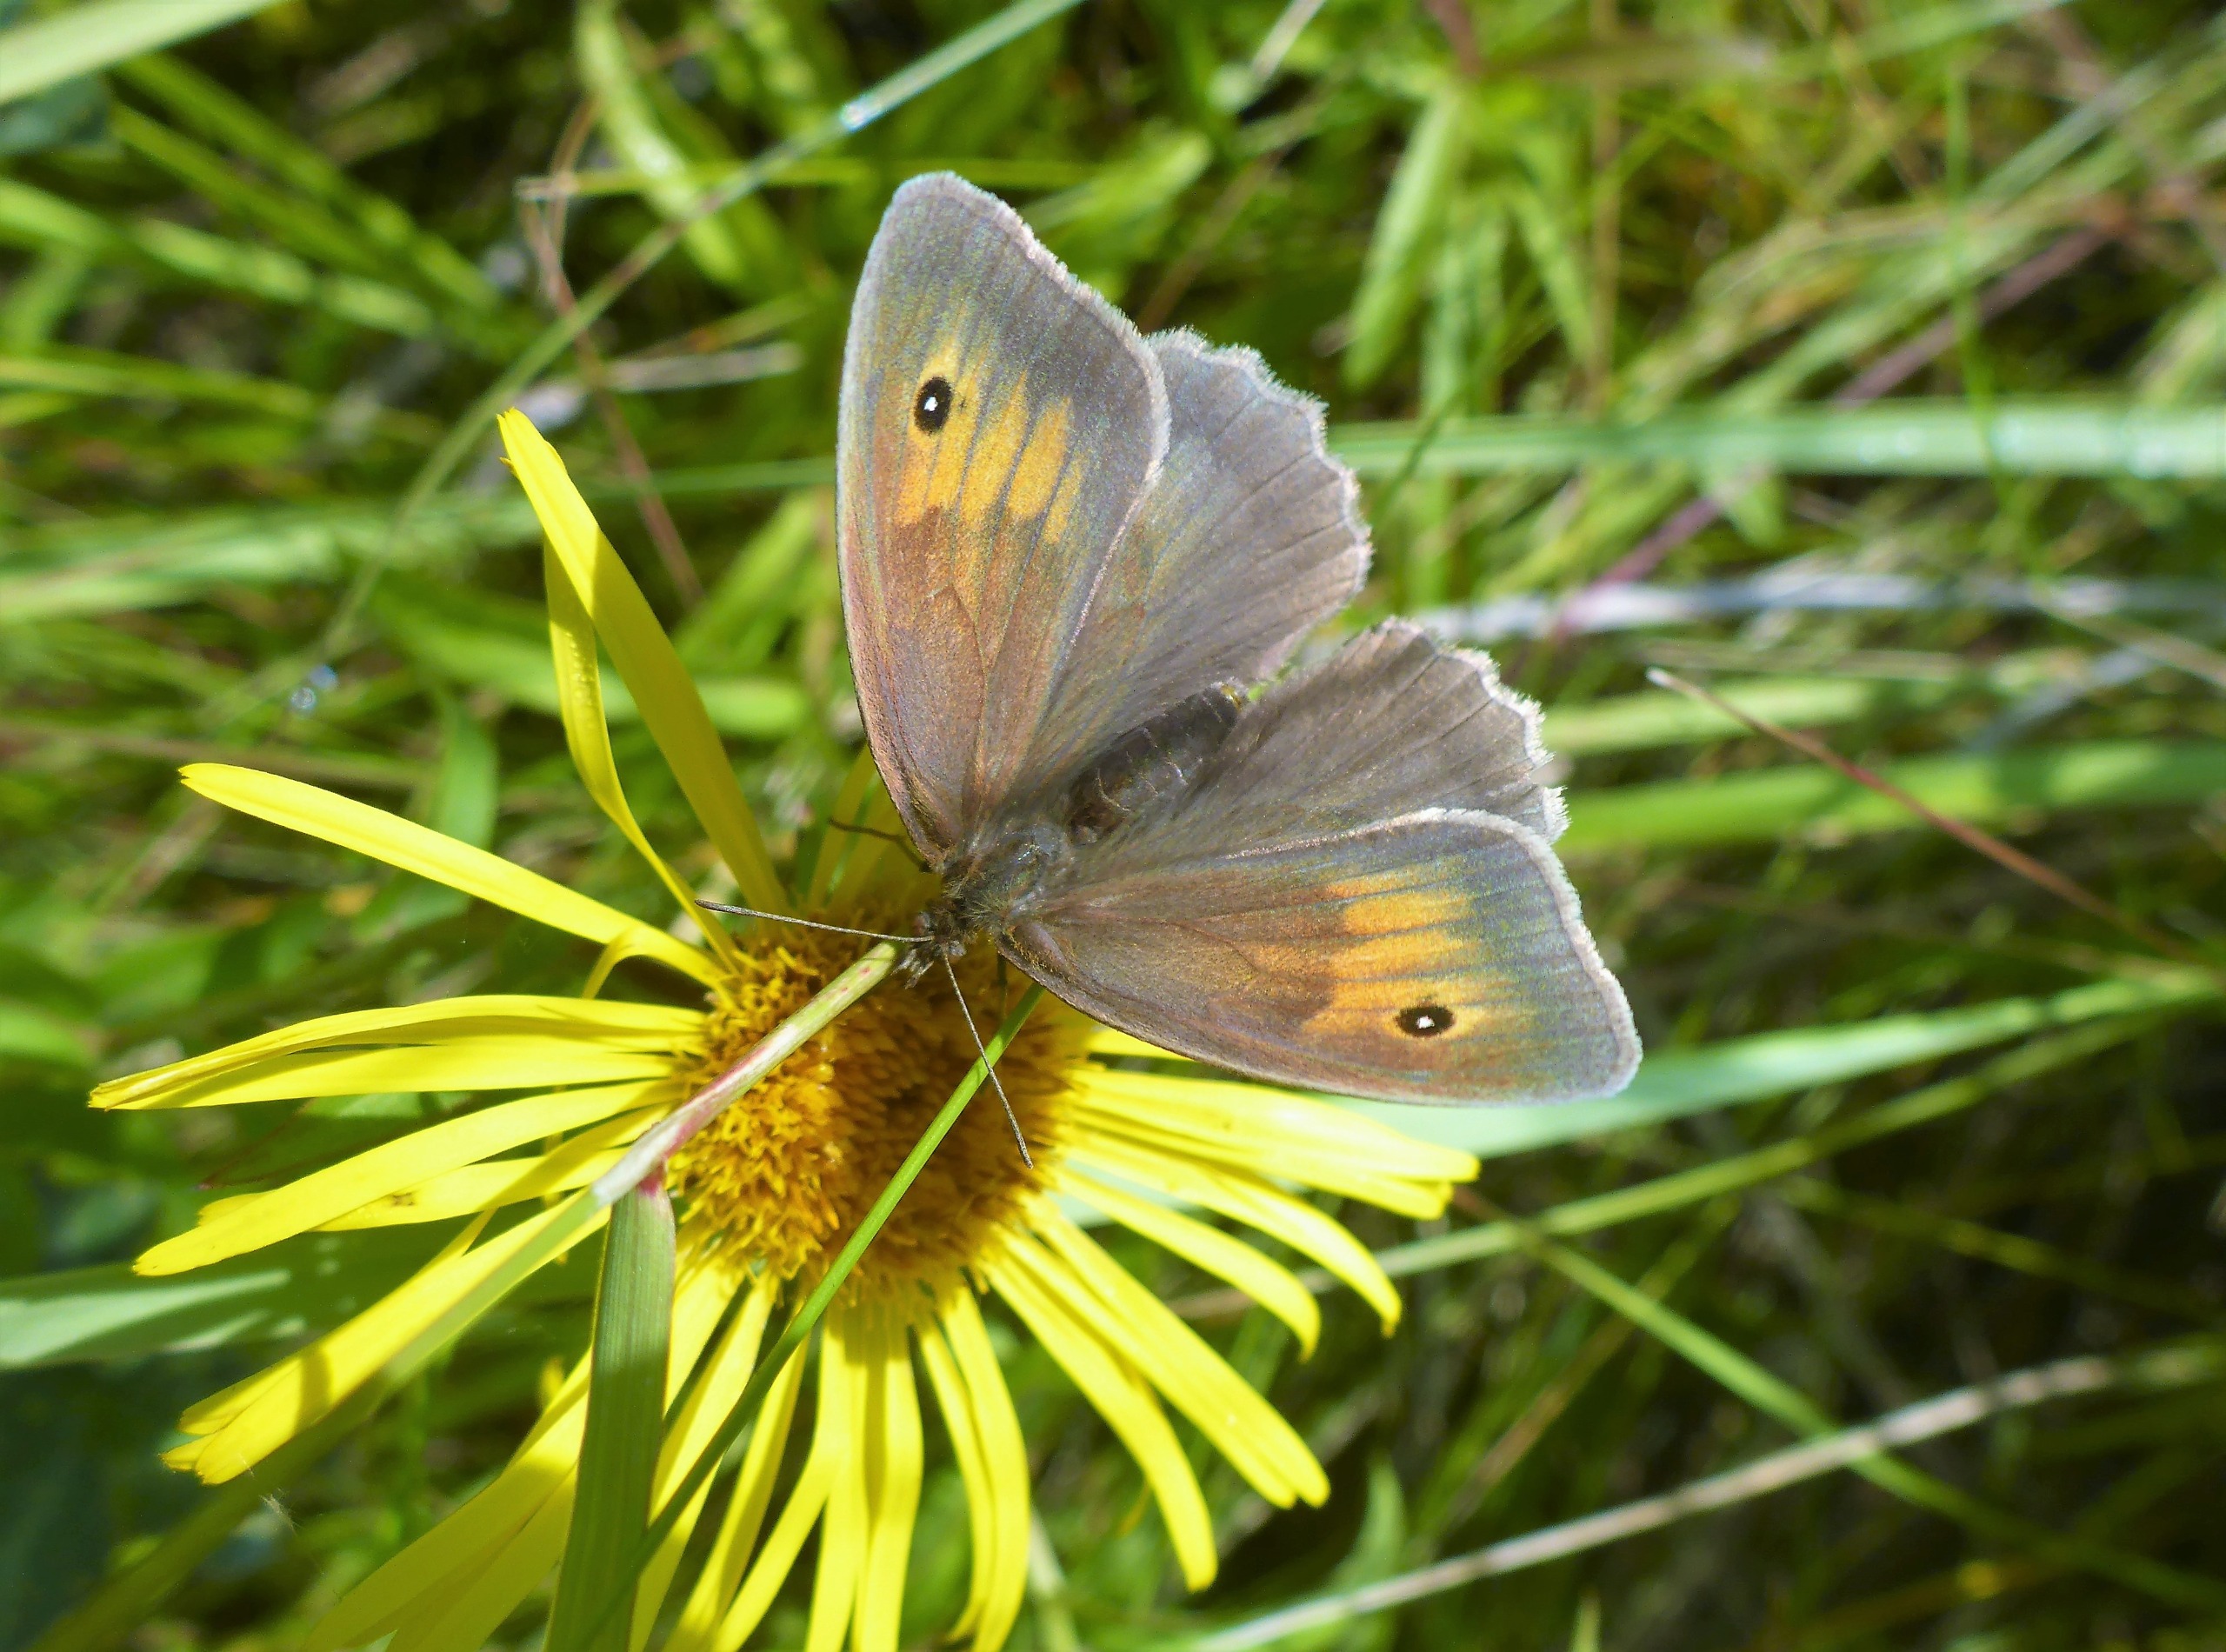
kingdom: Animalia
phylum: Arthropoda
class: Insecta
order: Lepidoptera
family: Nymphalidae
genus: Maniola
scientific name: Maniola jurtina
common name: Græsrandøje
